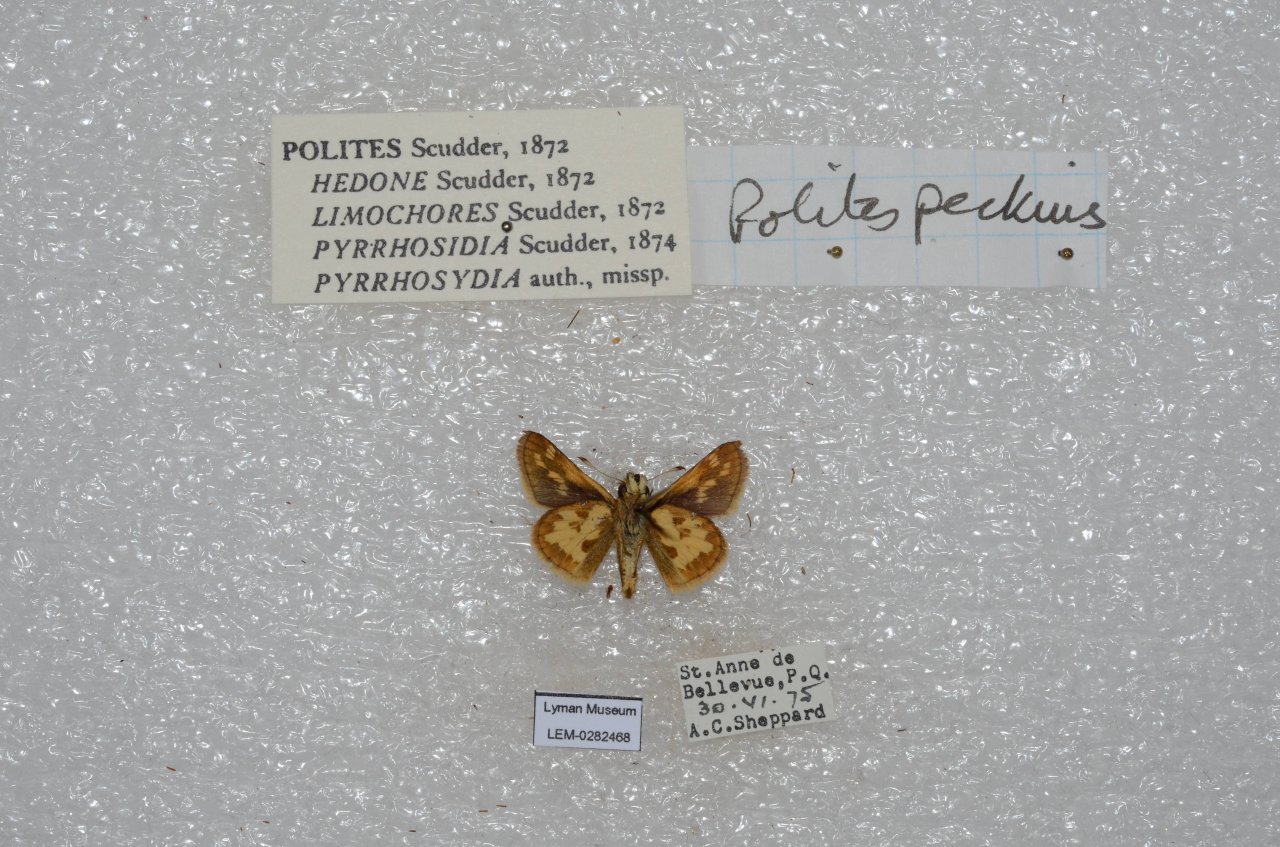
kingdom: Animalia
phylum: Arthropoda
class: Insecta
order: Lepidoptera
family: Hesperiidae
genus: Polites
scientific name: Polites coras
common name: Peck's Skipper
